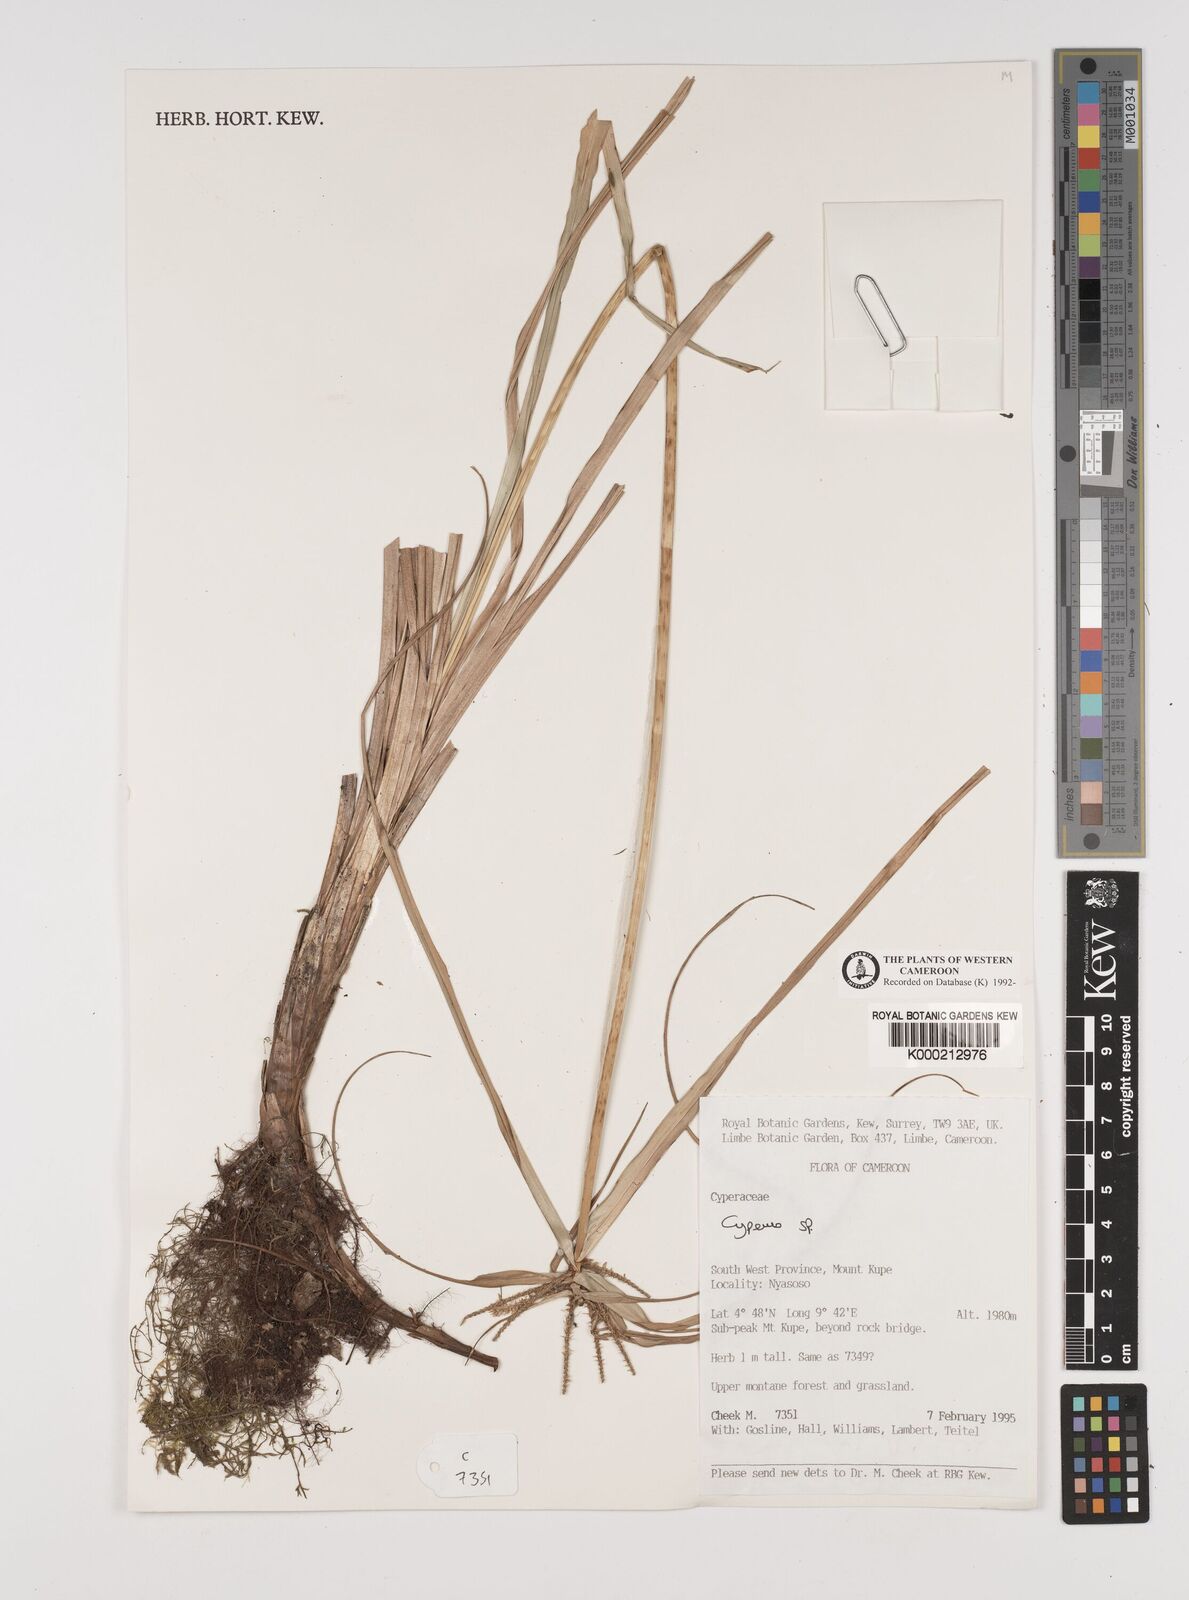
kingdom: Plantae
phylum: Tracheophyta
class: Liliopsida
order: Poales
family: Cyperaceae
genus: Cyperus
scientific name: Cyperus
